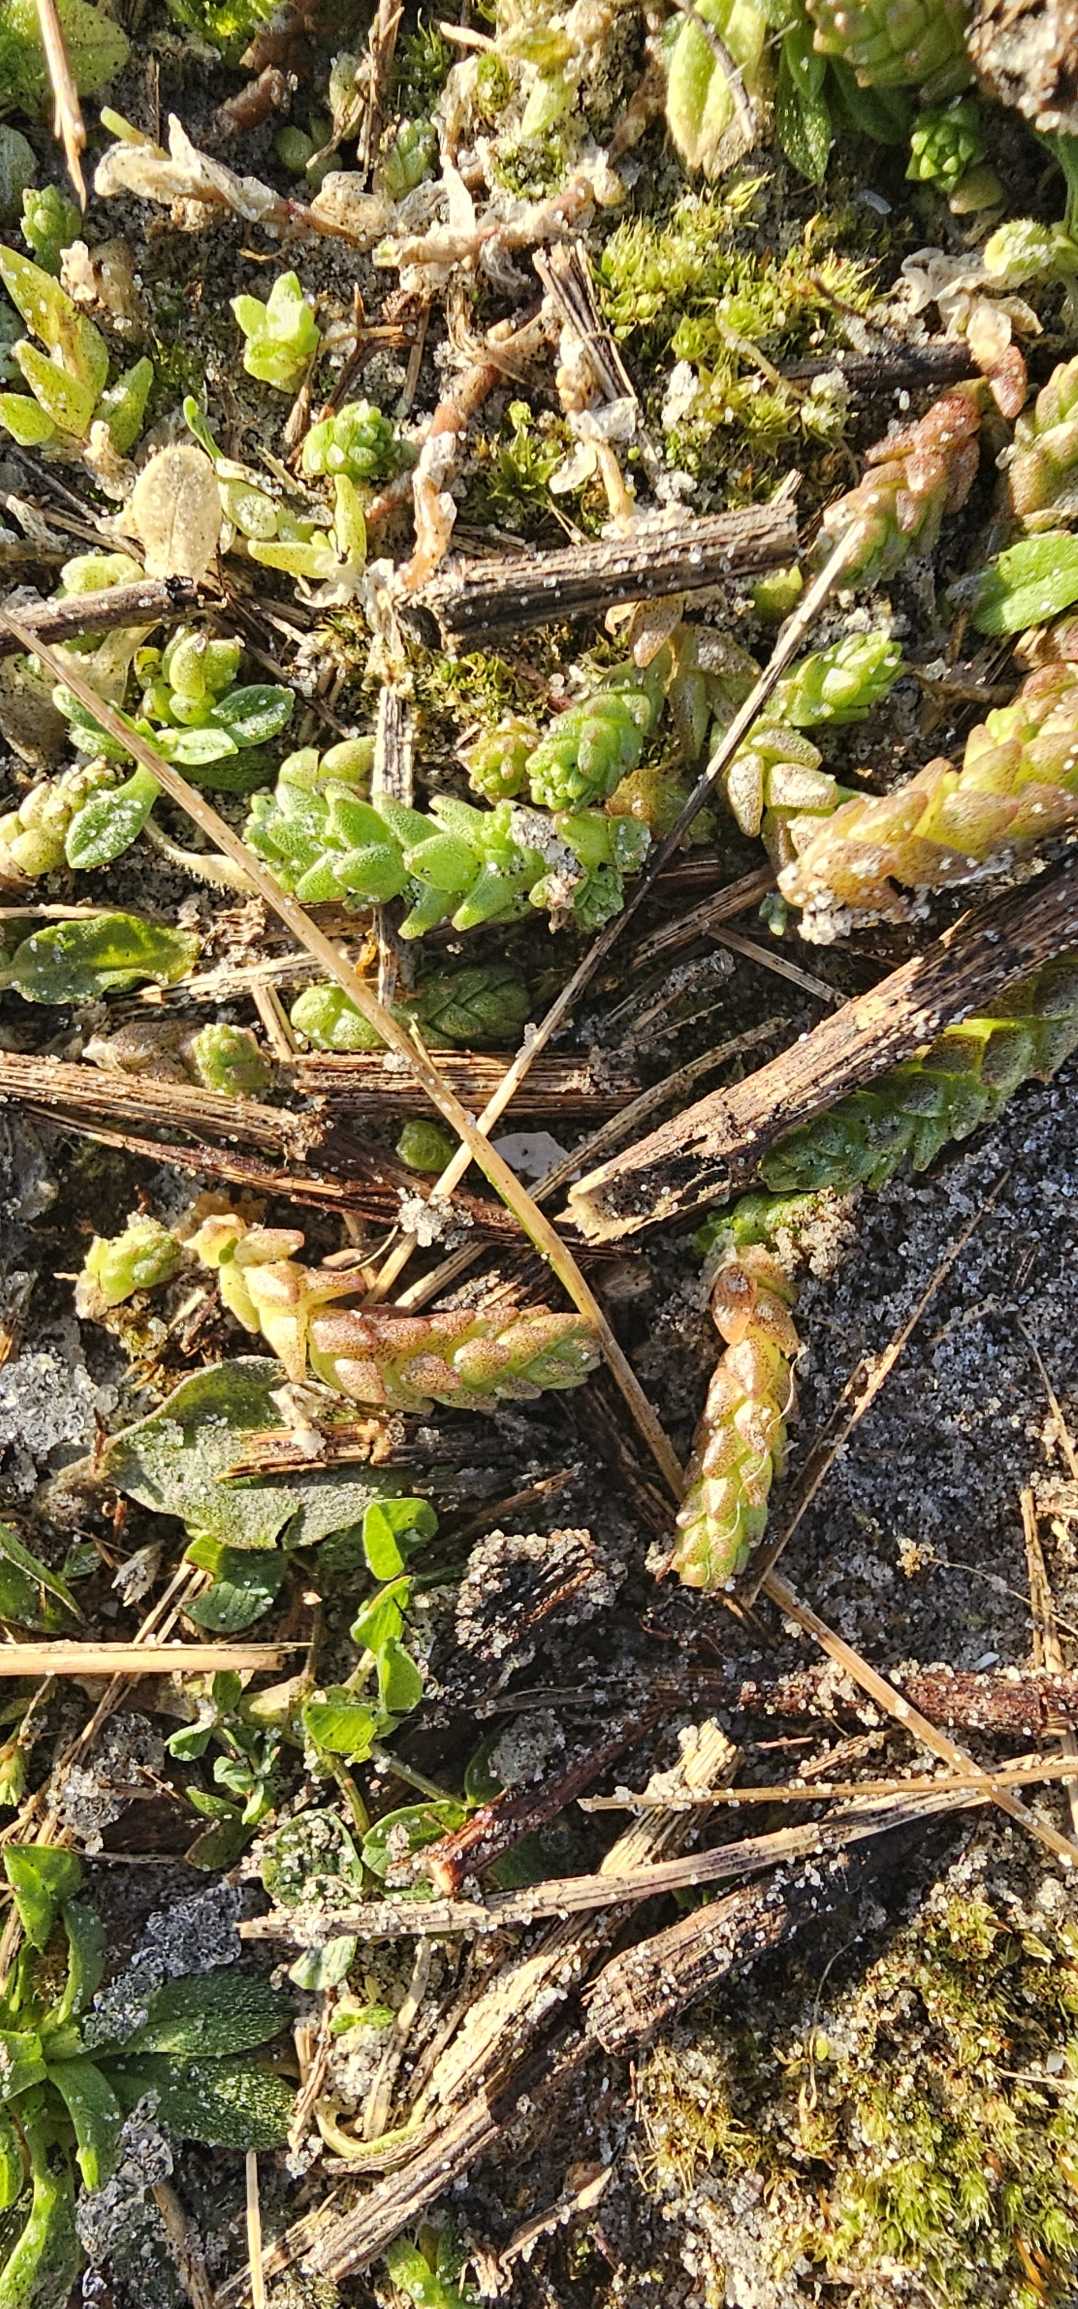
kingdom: Plantae
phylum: Tracheophyta
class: Magnoliopsida
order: Saxifragales
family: Crassulaceae
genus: Sedum
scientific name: Sedum acre
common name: Bidende stenurt
